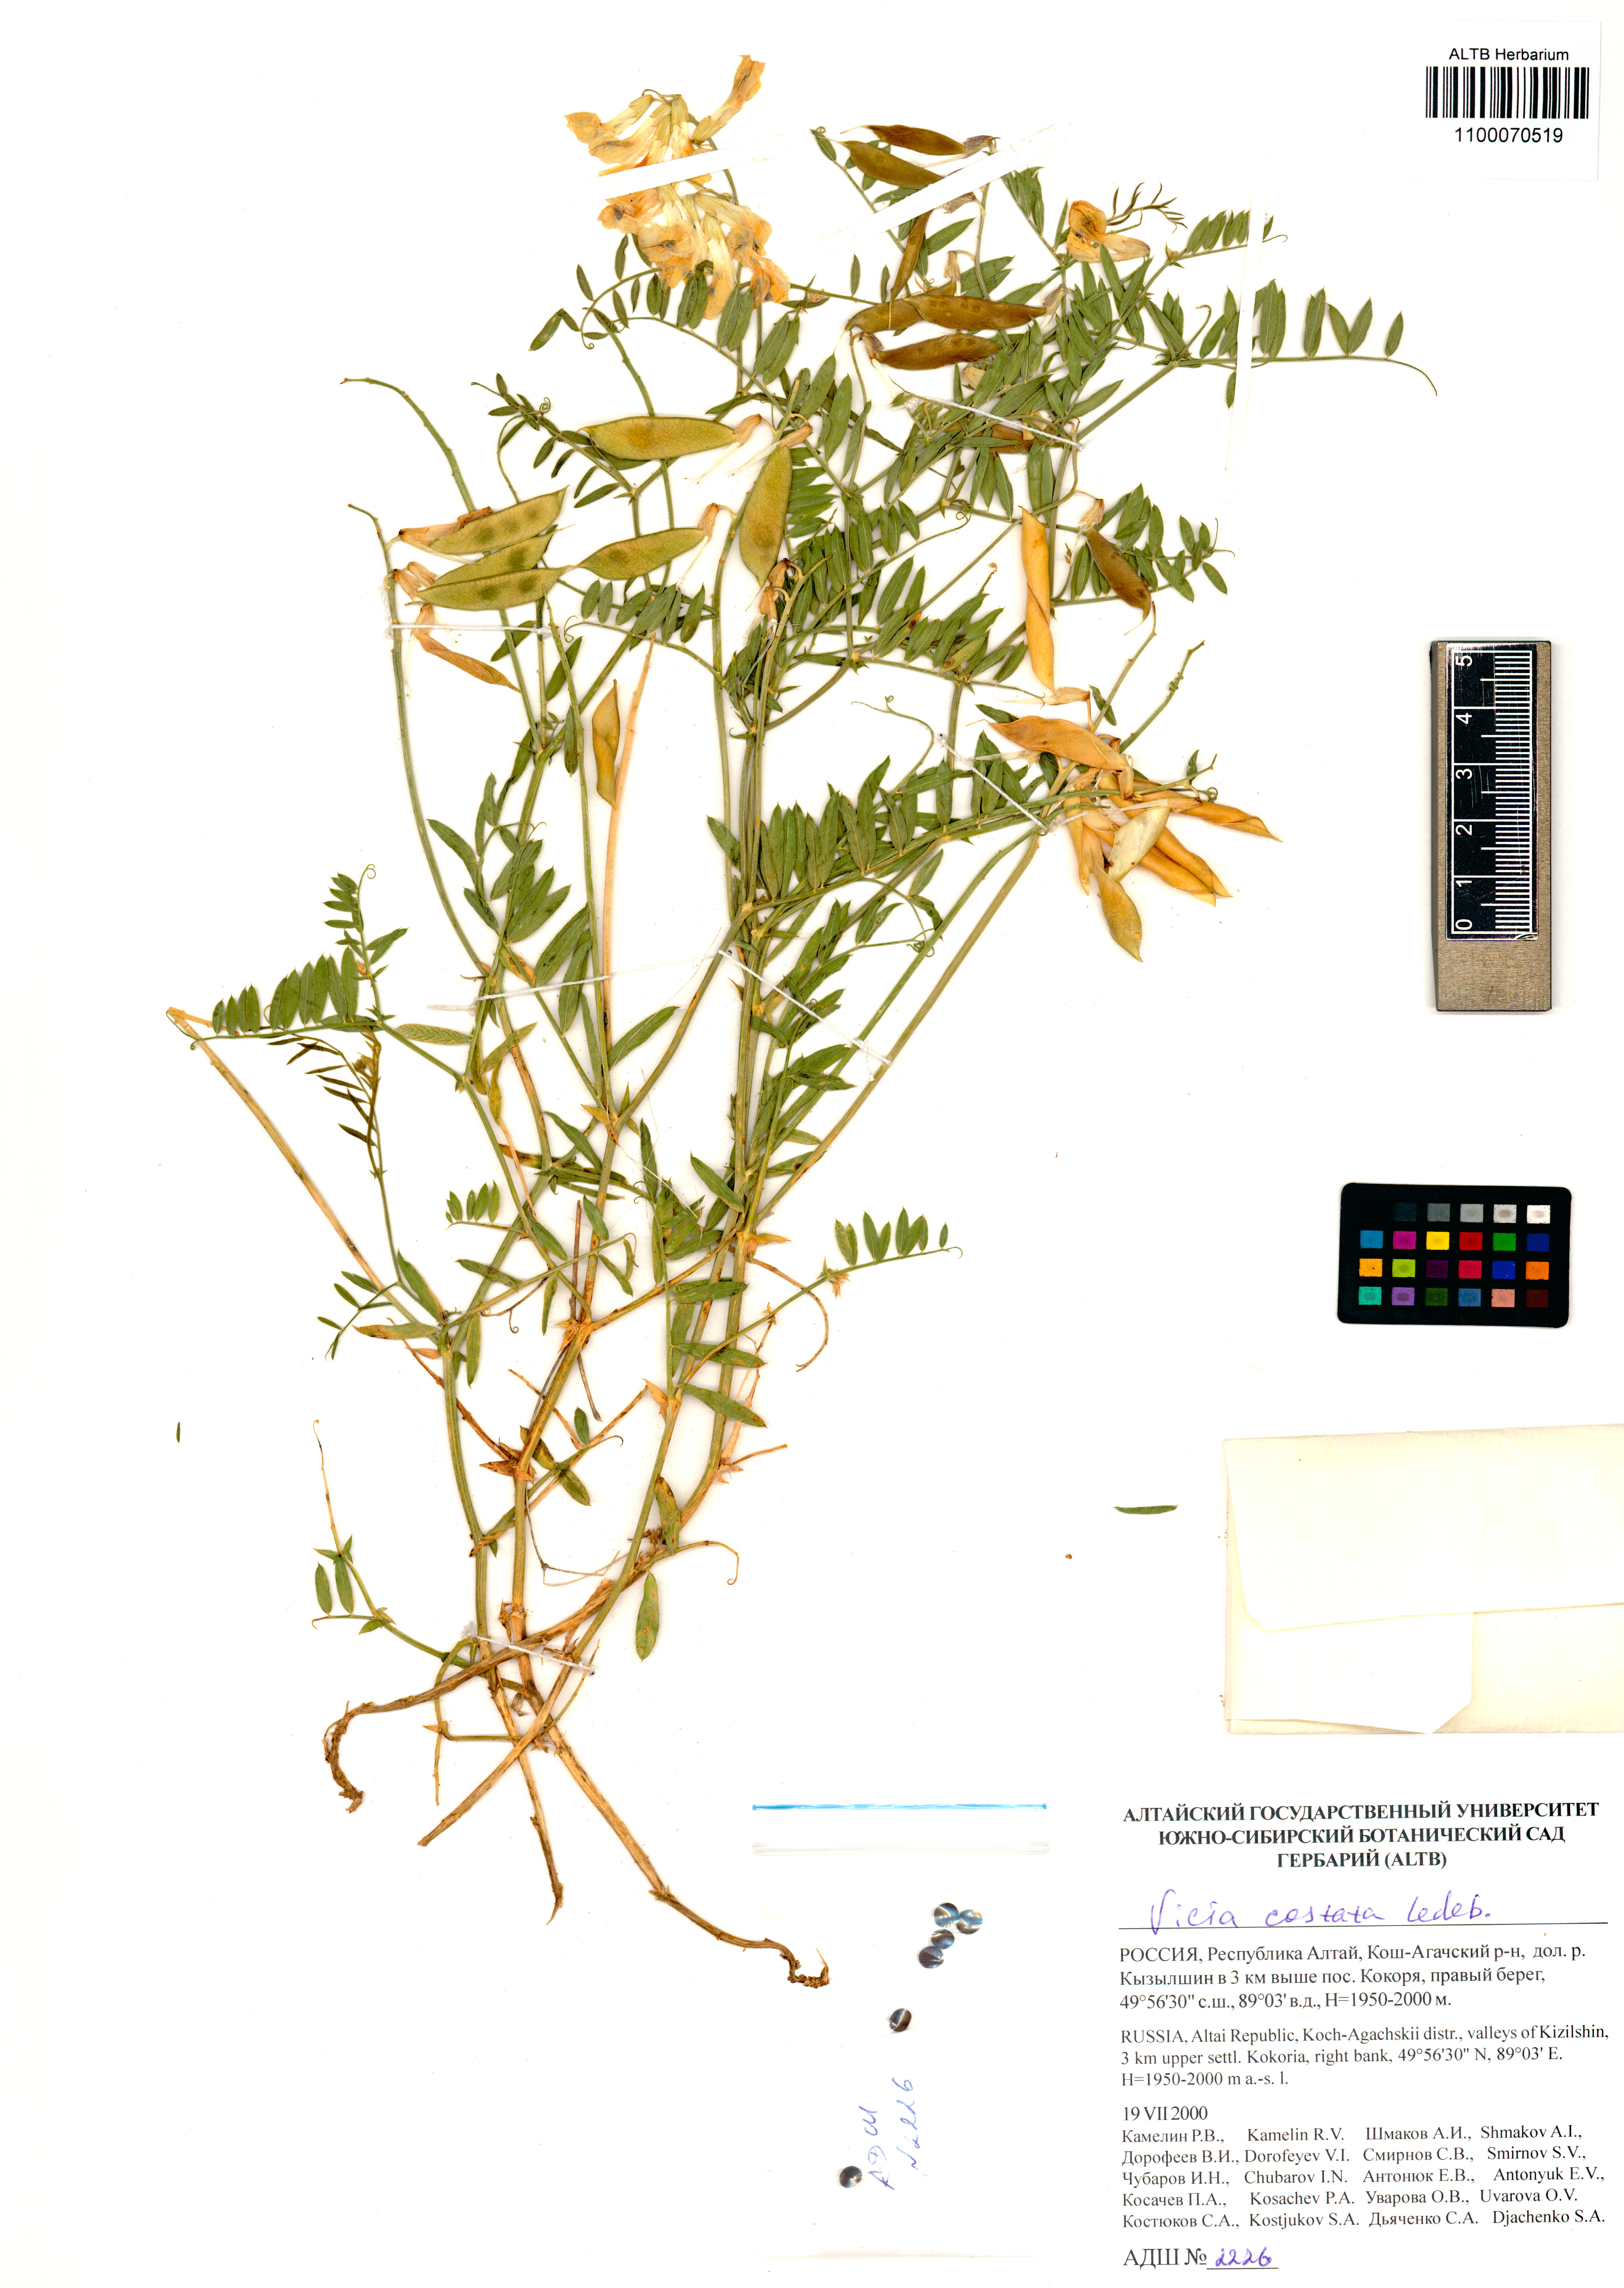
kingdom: Plantae
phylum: Tracheophyta
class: Magnoliopsida
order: Fabales
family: Fabaceae
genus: Vicia
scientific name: Vicia costata
